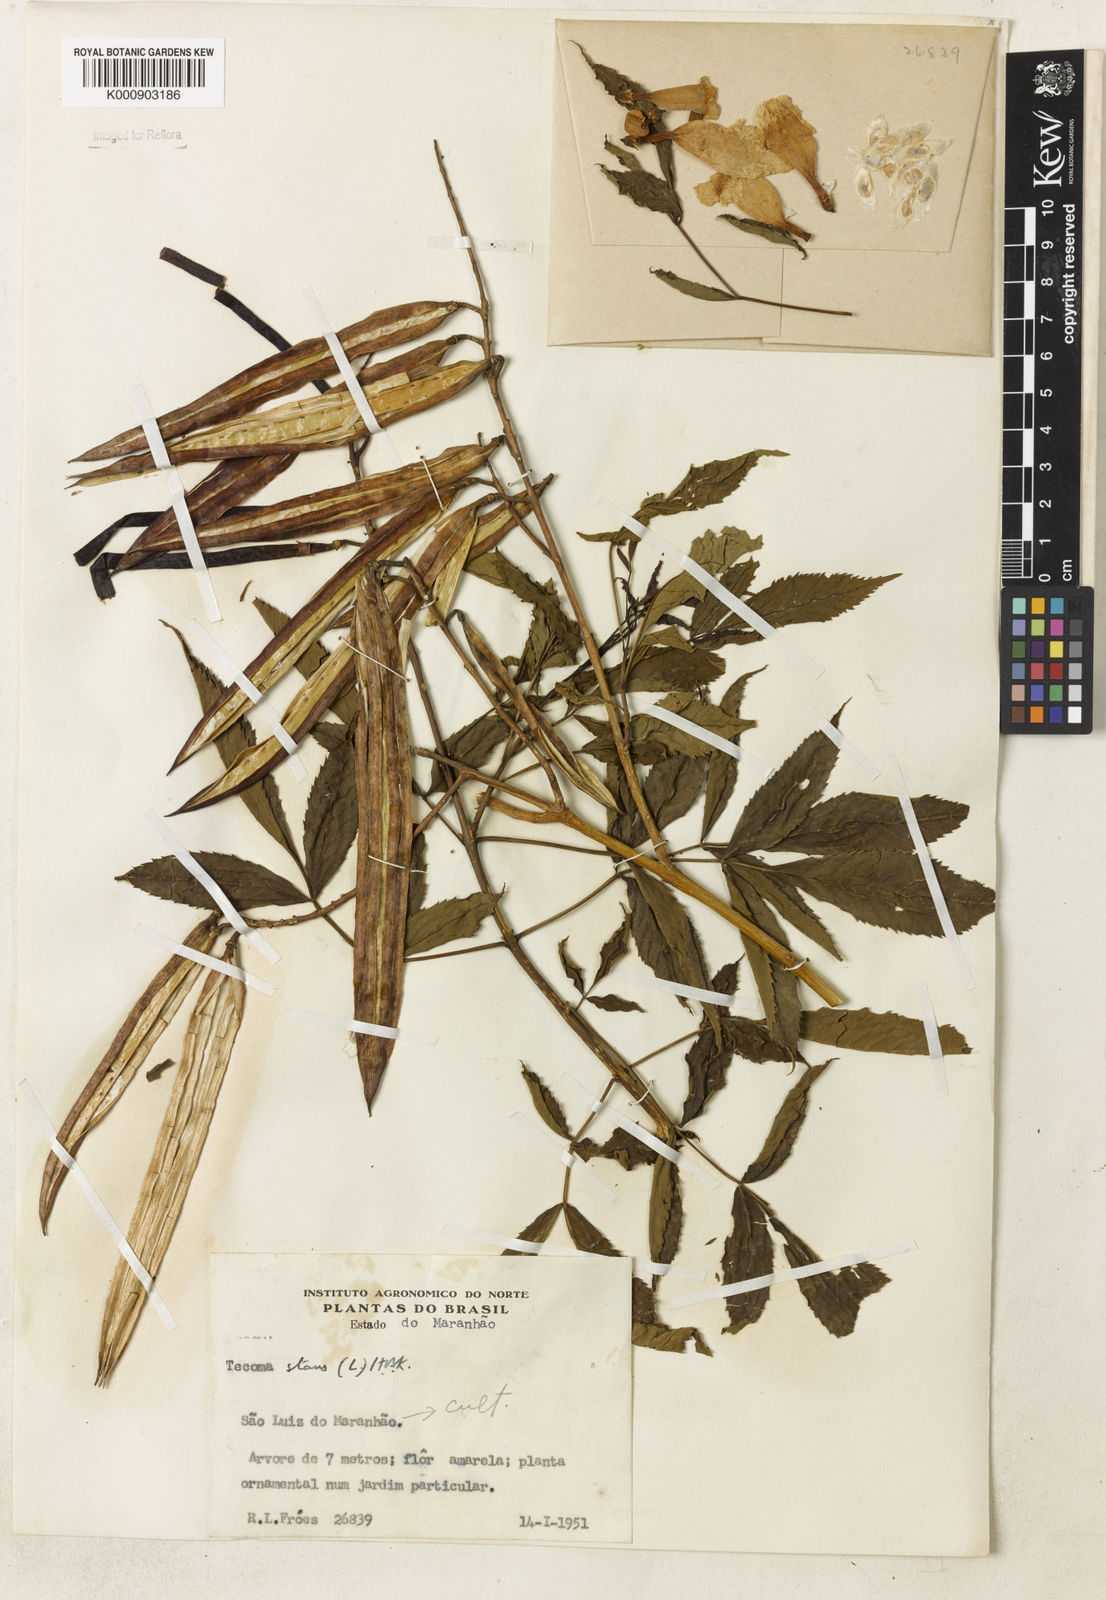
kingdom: Plantae
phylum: Tracheophyta
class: Magnoliopsida
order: Lamiales
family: Bignoniaceae
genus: Tecoma
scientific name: Tecoma stans
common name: Yellow trumpetbush
